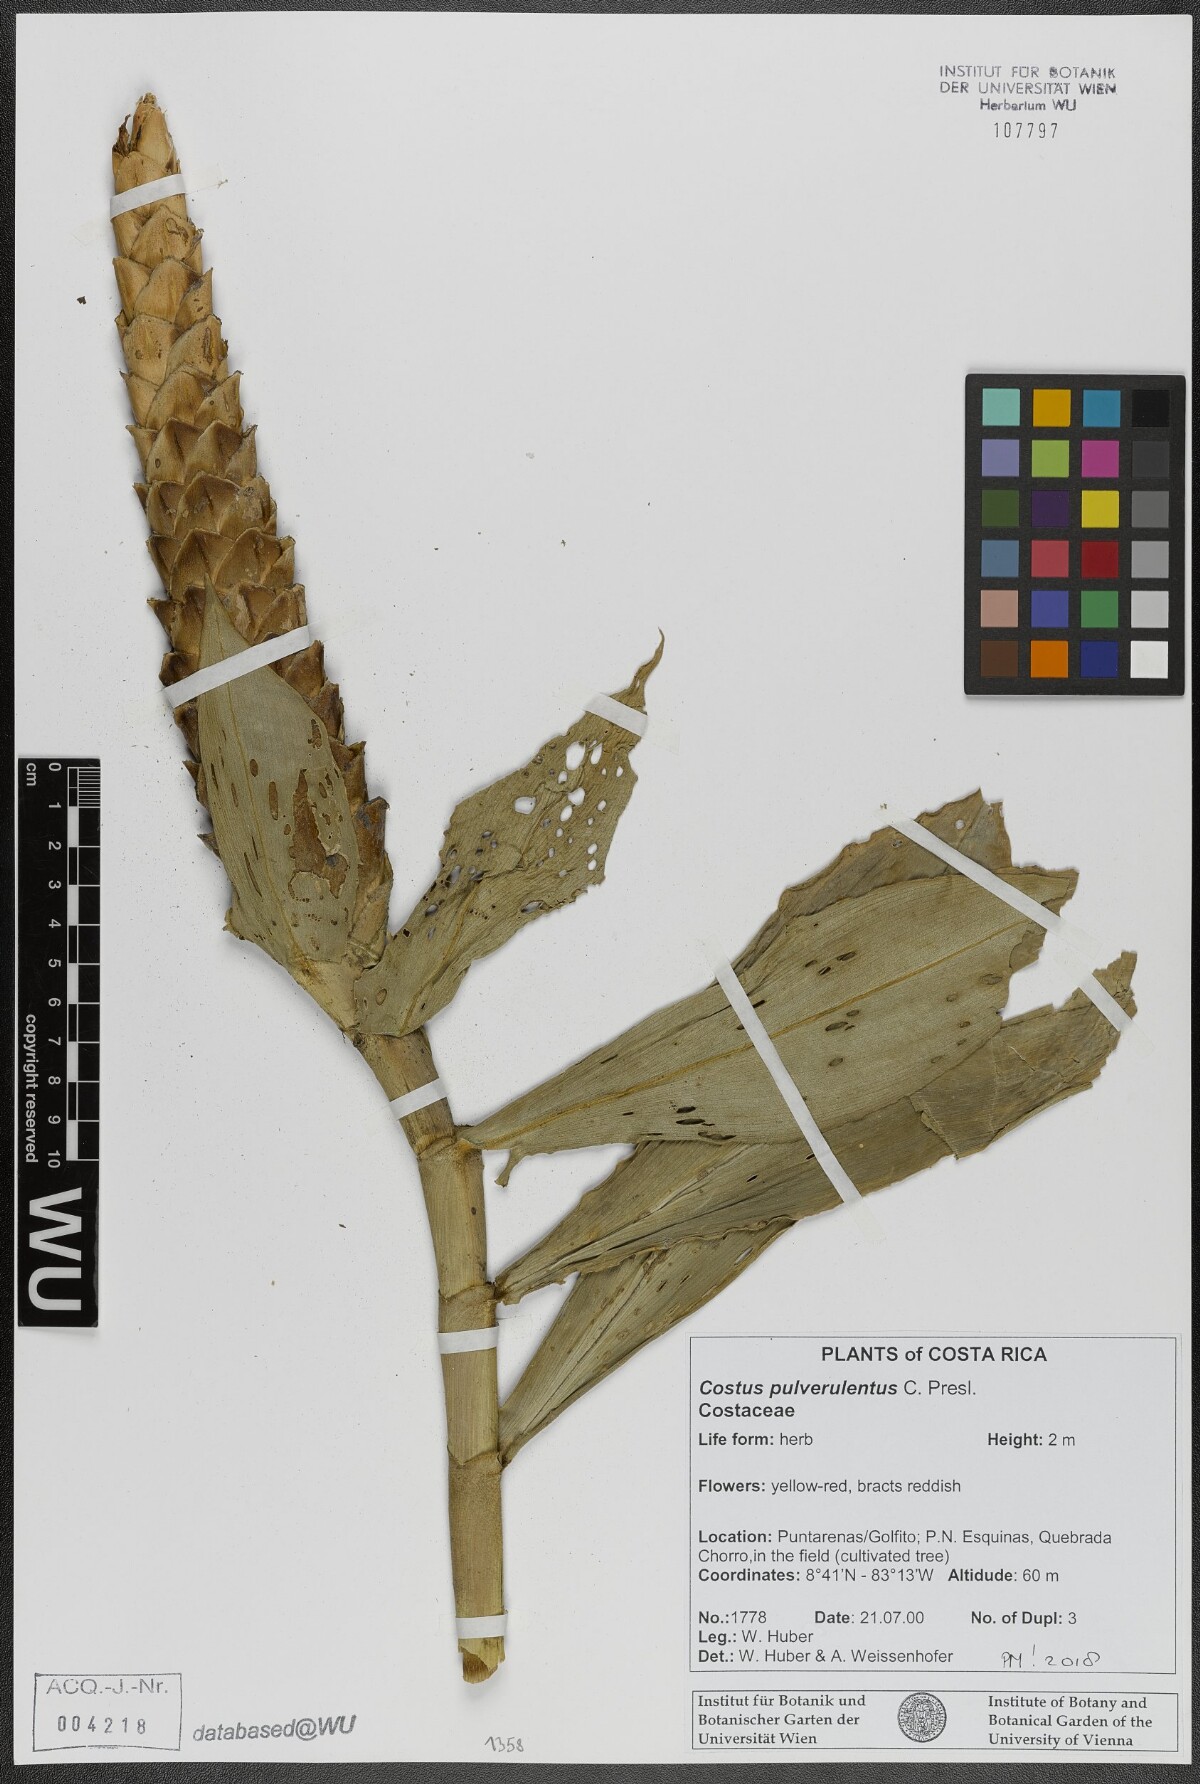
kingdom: Plantae
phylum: Tracheophyta
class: Liliopsida
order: Zingiberales
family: Costaceae
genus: Costus
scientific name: Costus pulverulentus
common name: Spiral ginger
